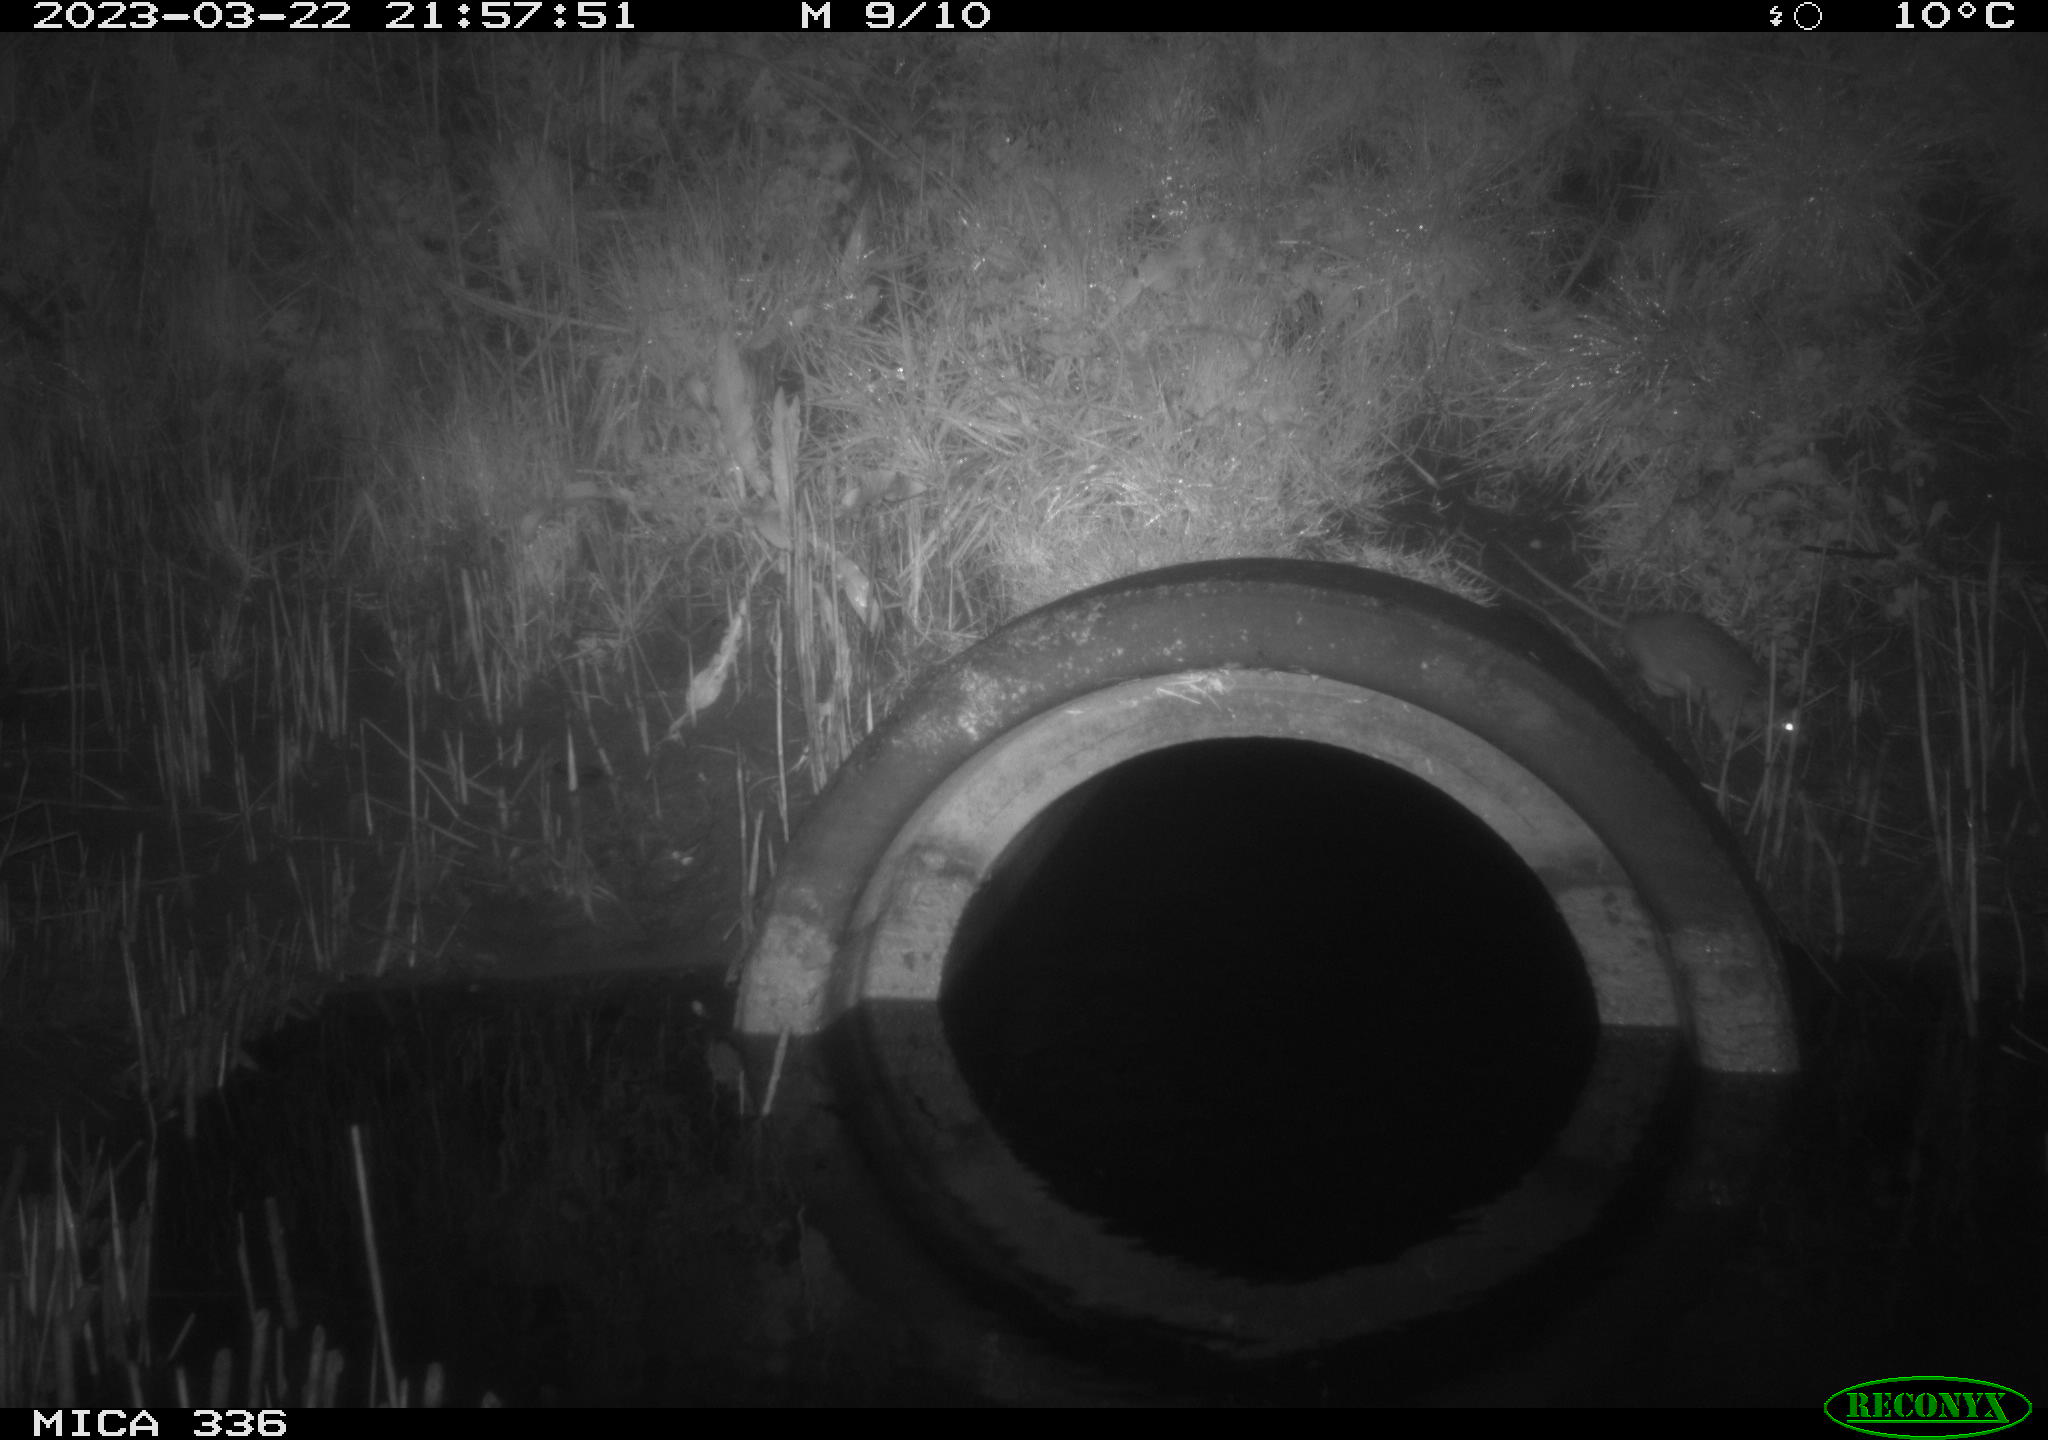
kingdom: Animalia
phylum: Chordata
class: Mammalia
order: Rodentia
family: Muridae
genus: Rattus
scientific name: Rattus norvegicus
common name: Brown rat
